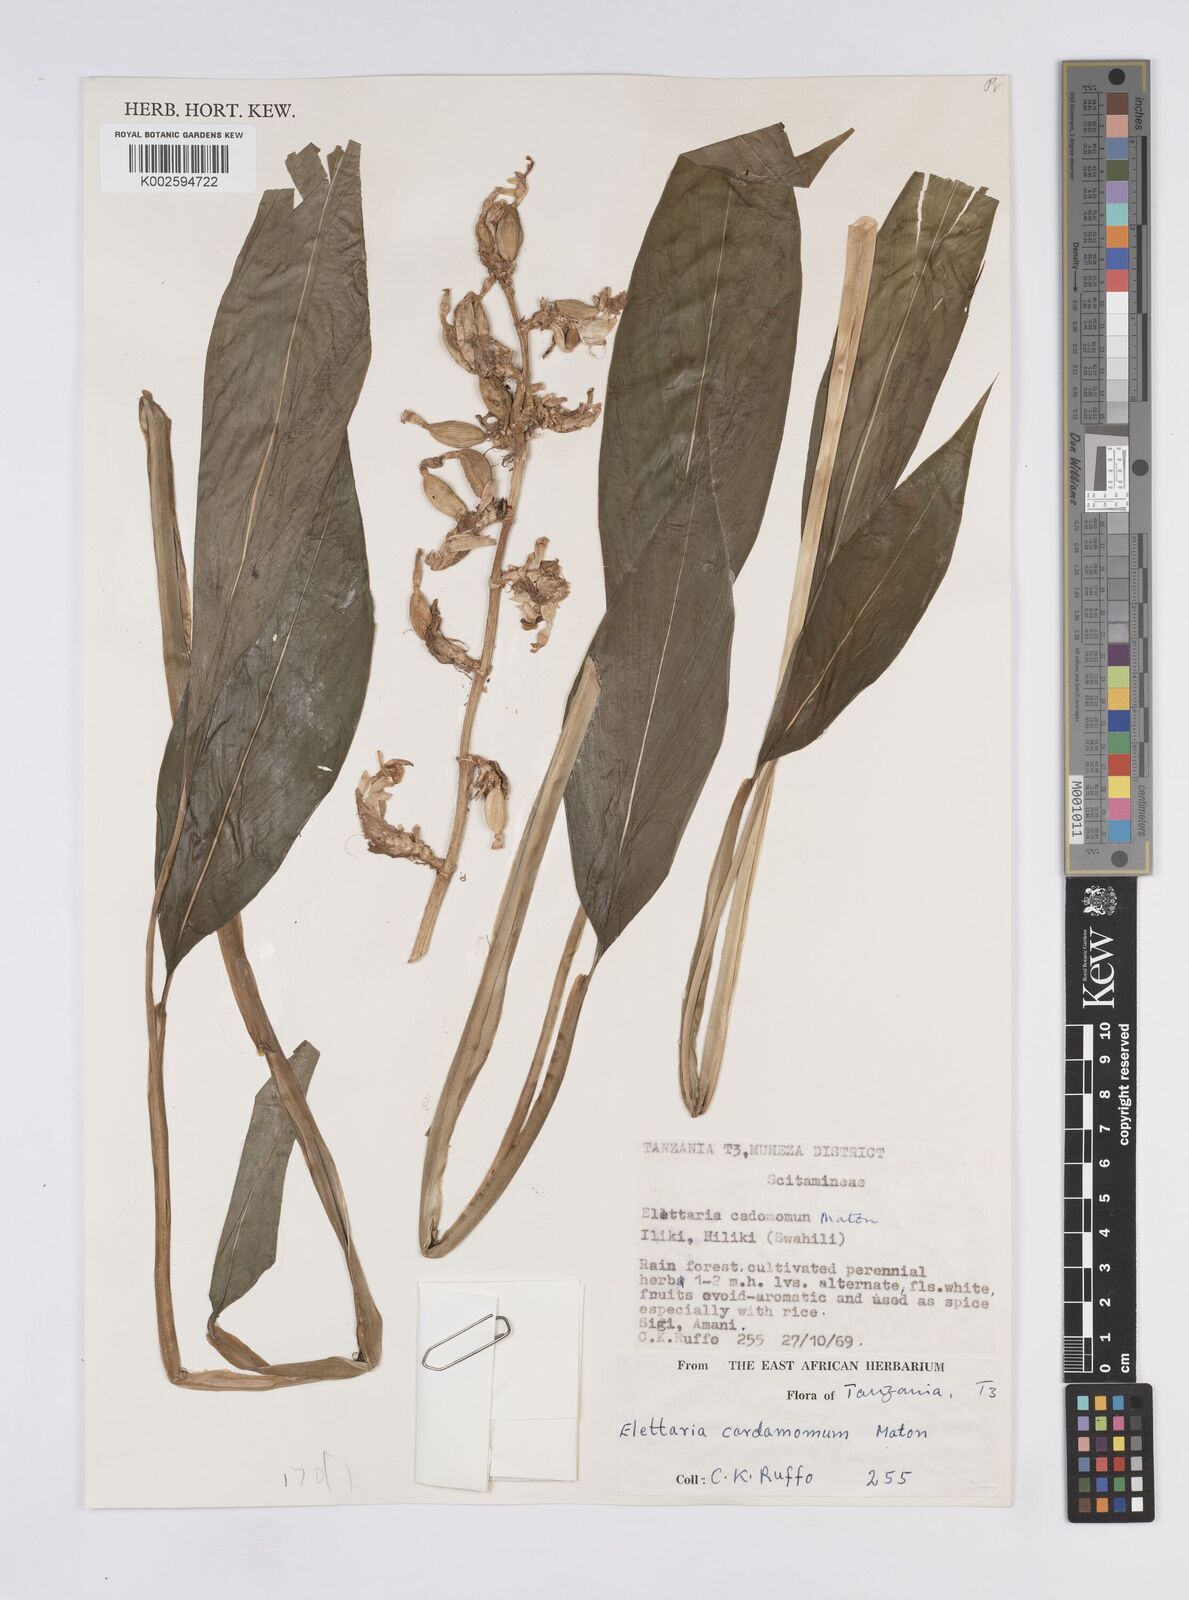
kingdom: Plantae
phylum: Tracheophyta
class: Liliopsida
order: Zingiberales
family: Zingiberaceae
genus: Elettaria
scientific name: Elettaria cardamomum
